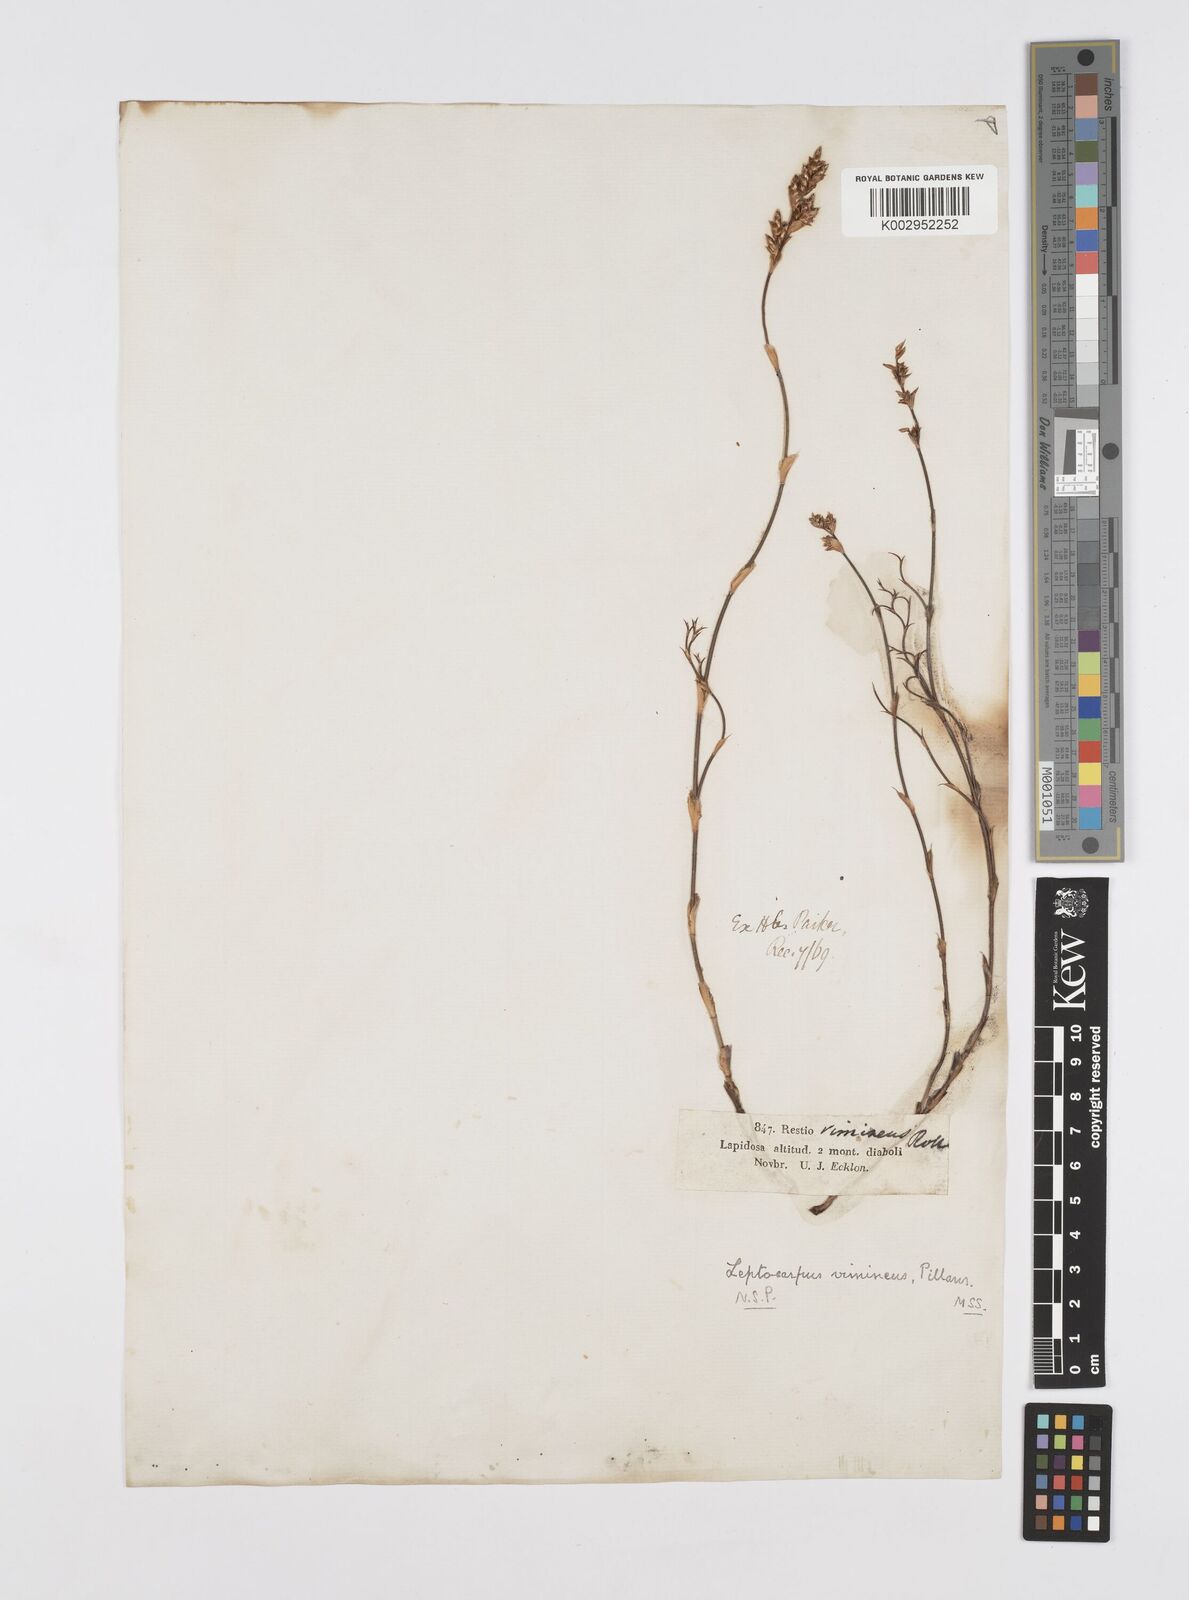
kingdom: Plantae
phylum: Tracheophyta
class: Liliopsida
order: Poales
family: Restionaceae
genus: Restio
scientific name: Restio vimineus
